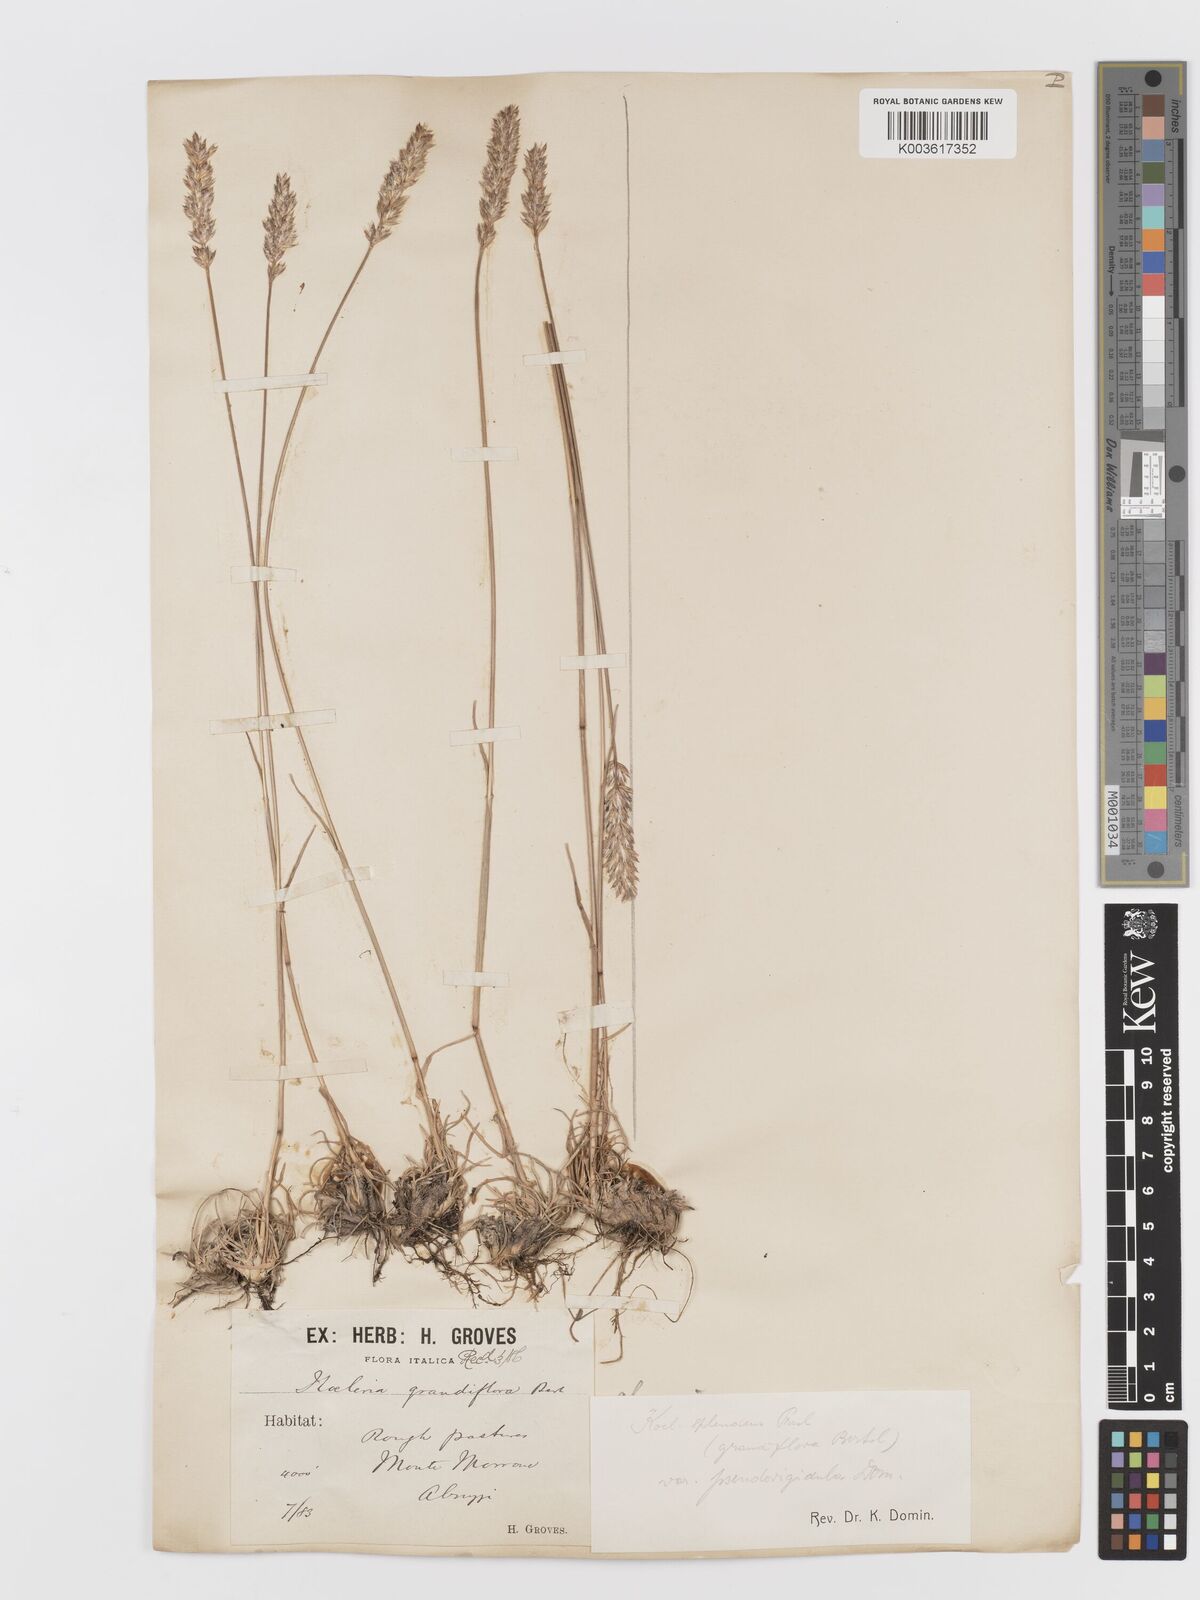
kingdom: Plantae
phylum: Tracheophyta
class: Liliopsida
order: Poales
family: Poaceae
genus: Koeleria
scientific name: Koeleria splendens
